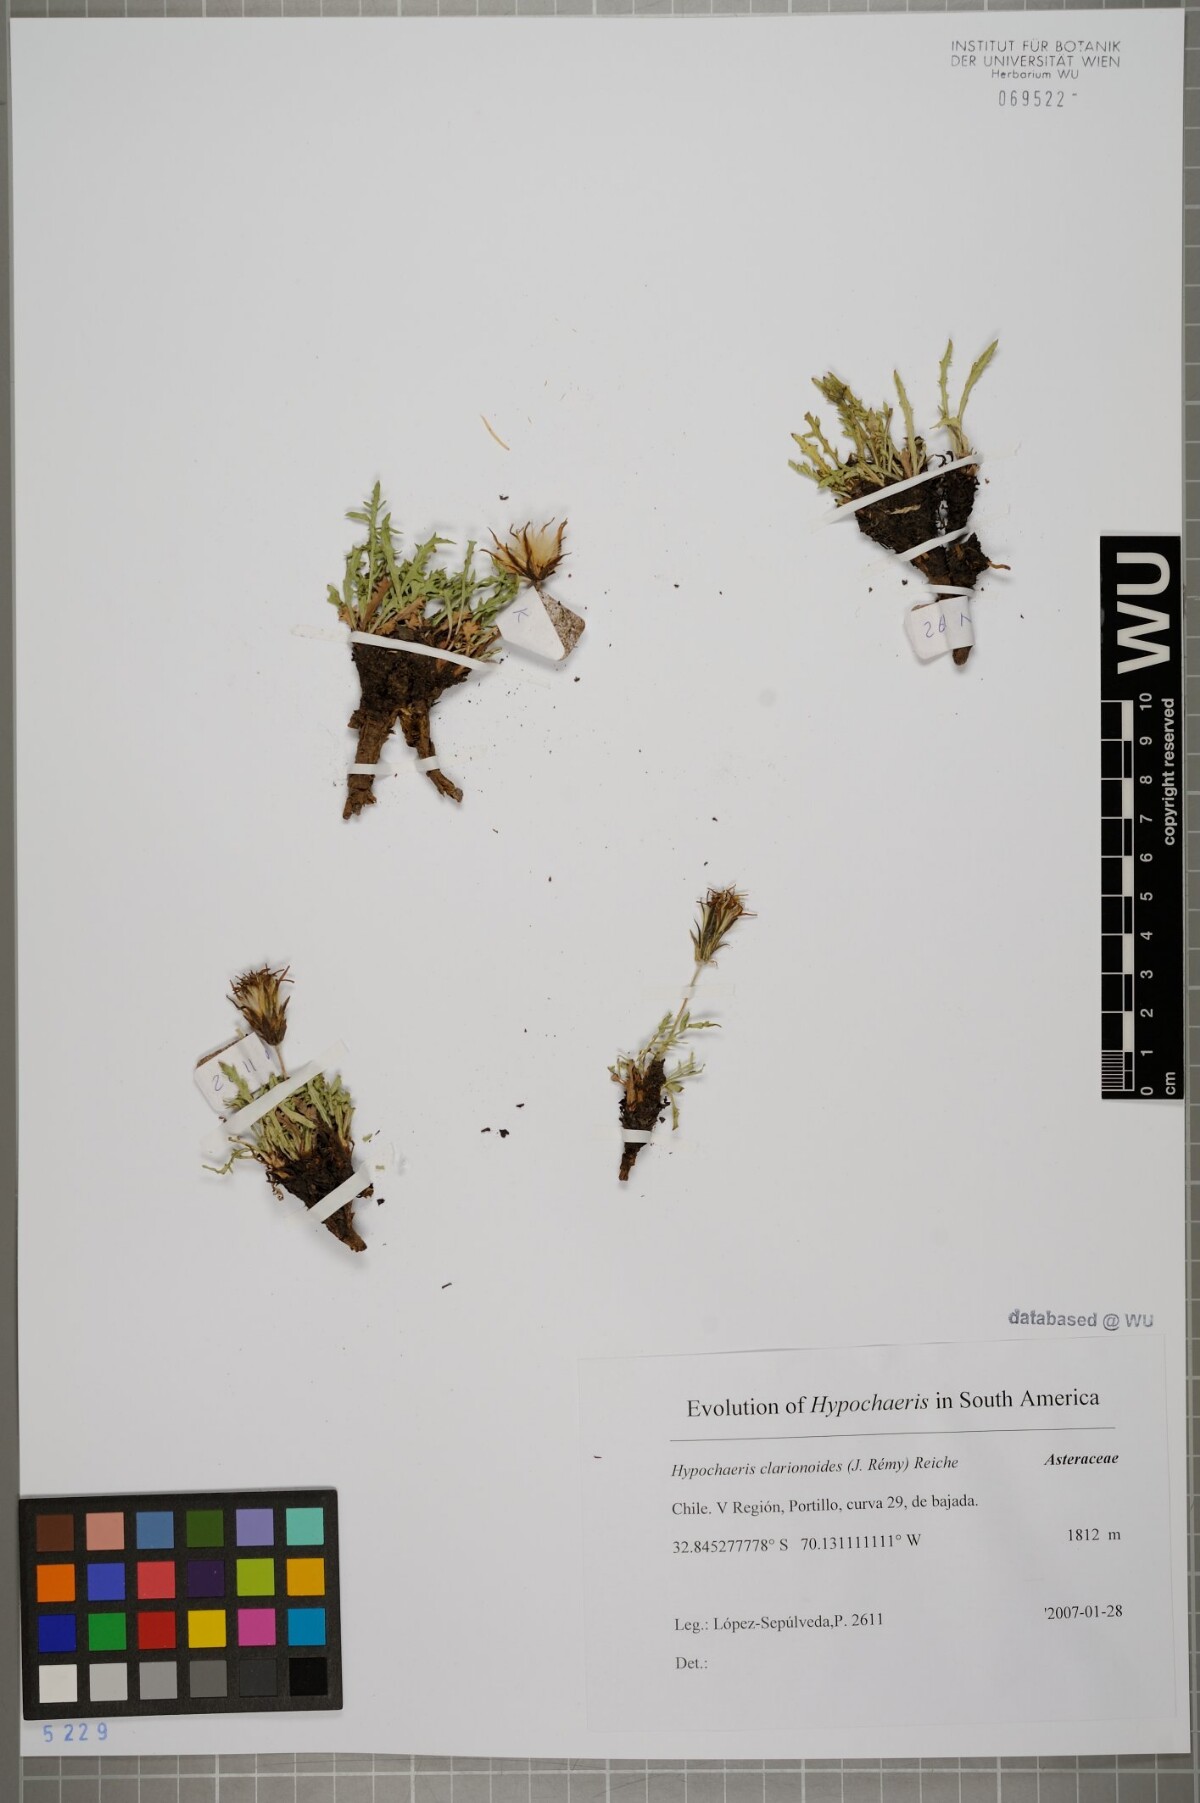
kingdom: Plantae
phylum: Tracheophyta
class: Magnoliopsida
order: Asterales
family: Asteraceae
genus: Hypochaeris
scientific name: Hypochaeris clarionoides
